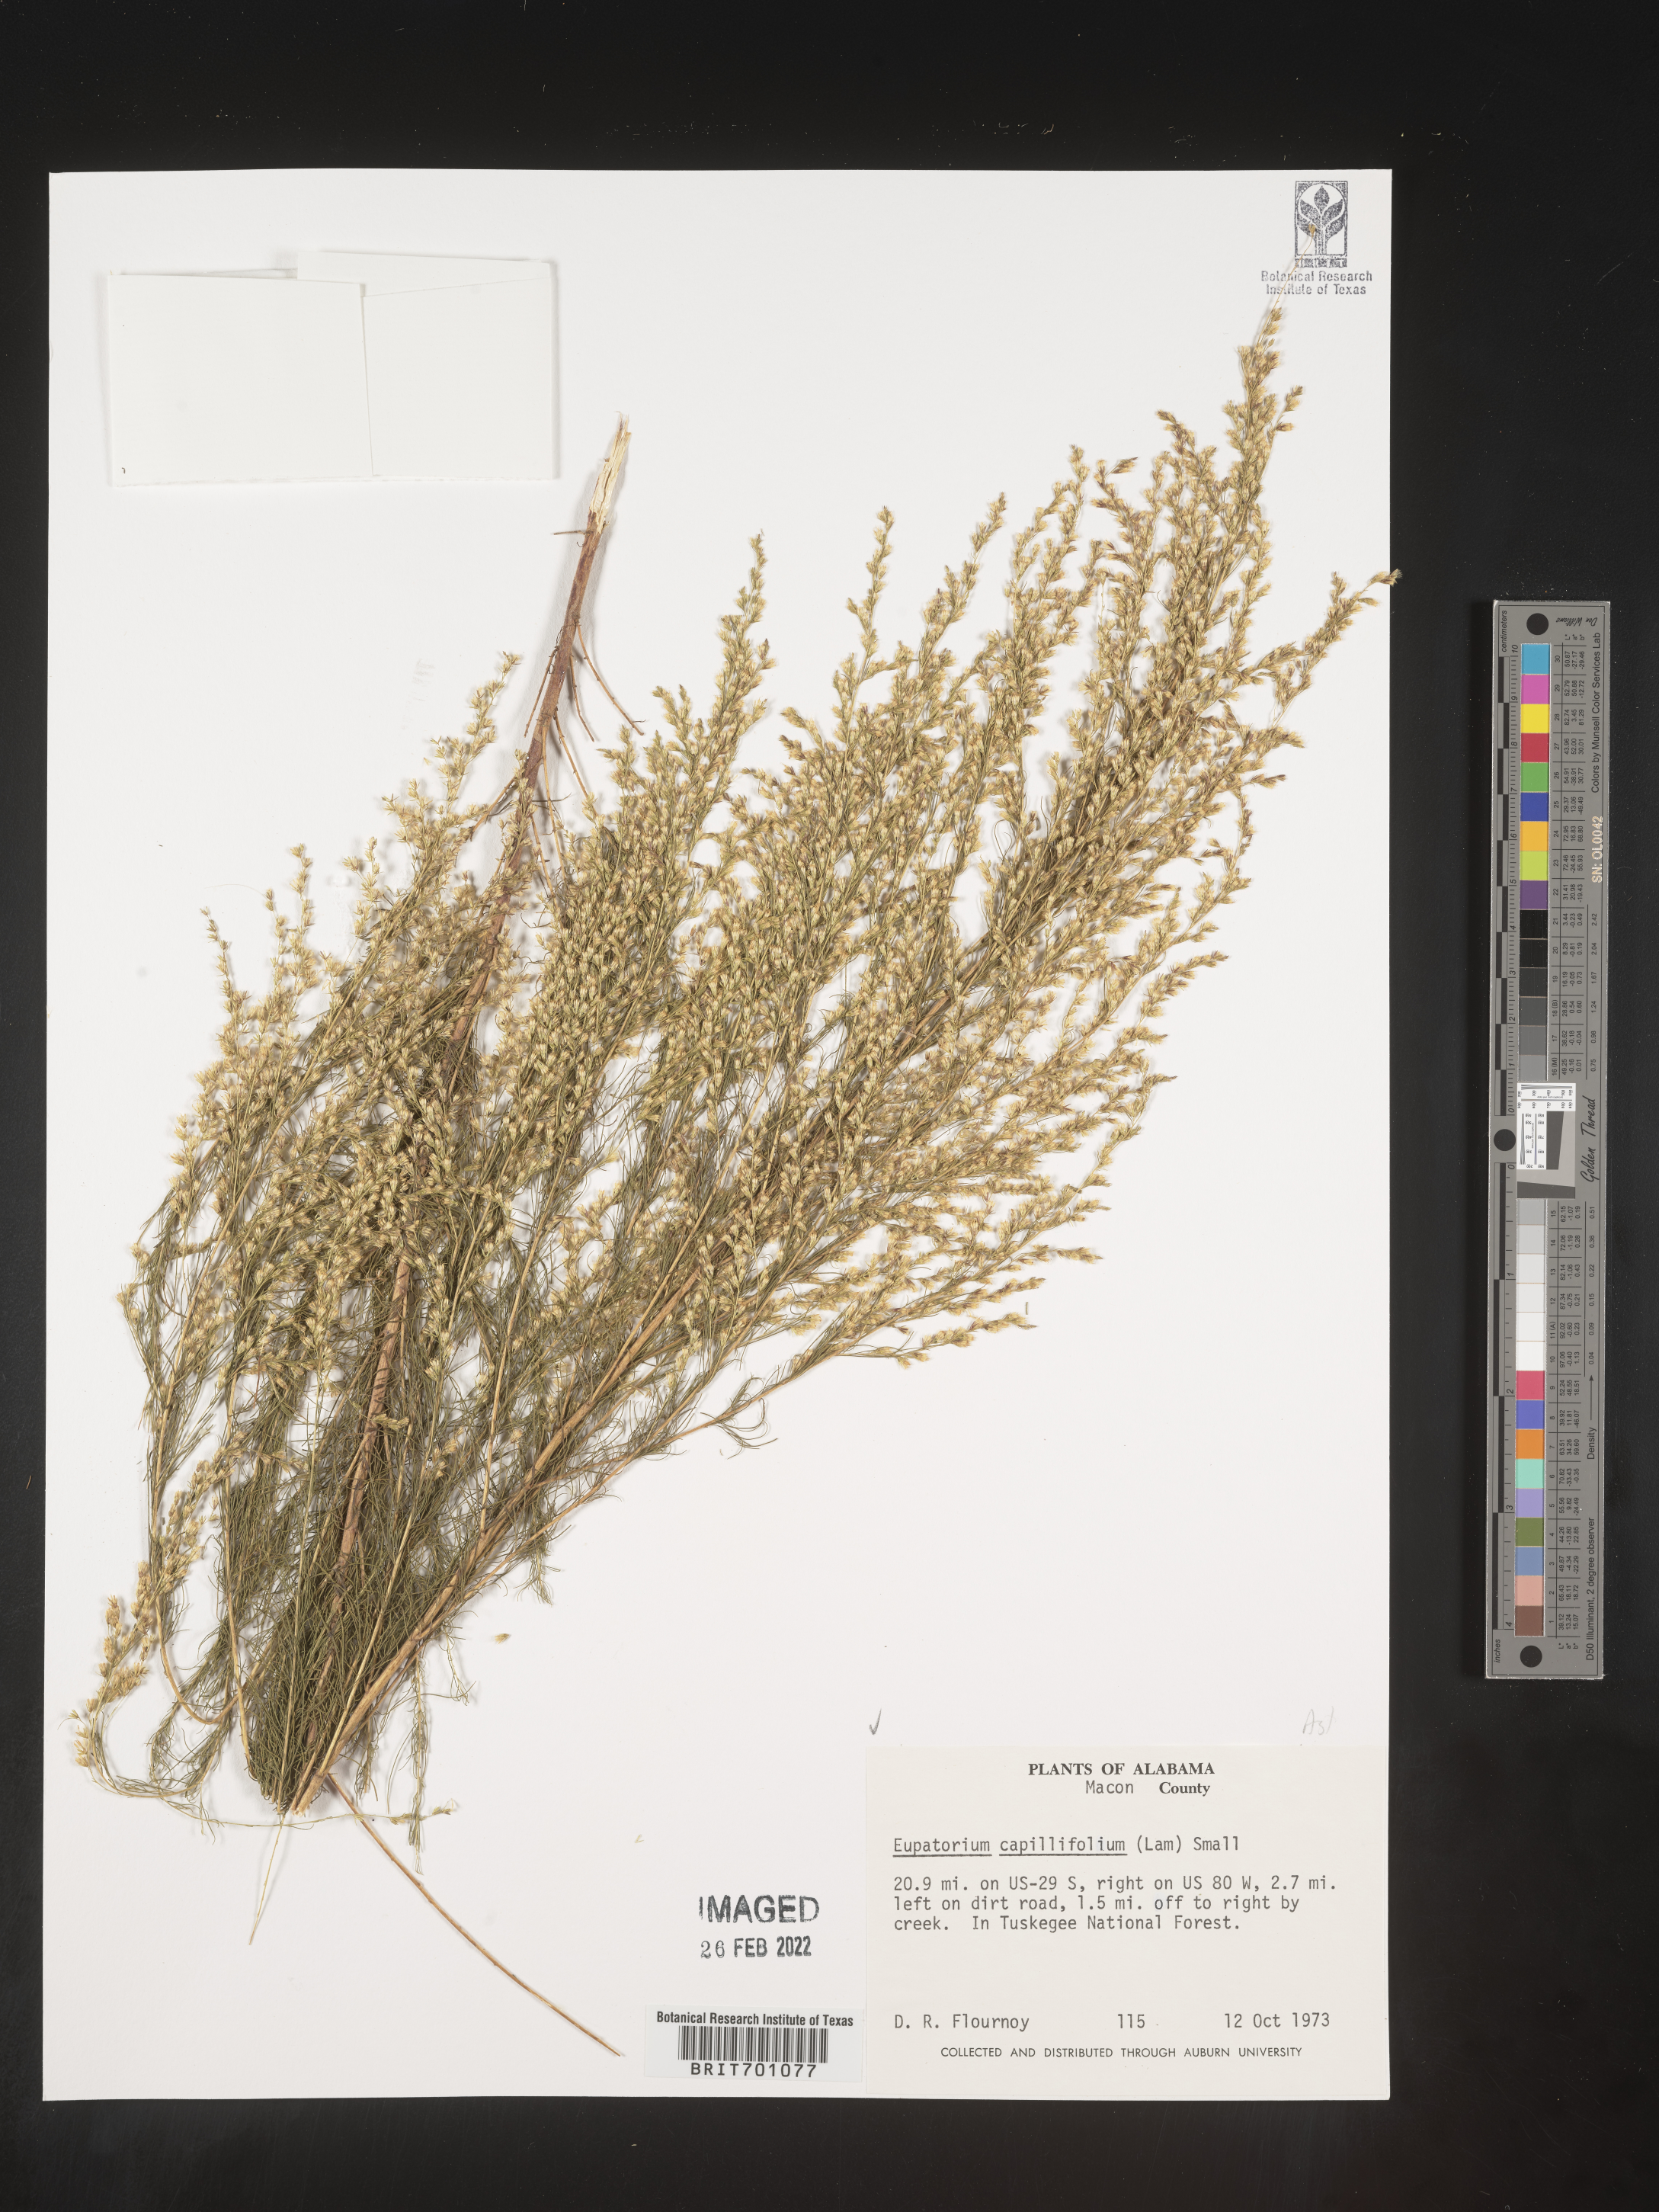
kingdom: Plantae
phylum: Tracheophyta
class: Magnoliopsida
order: Asterales
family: Asteraceae
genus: Eupatorium
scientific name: Eupatorium capillifolium
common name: Dog-fennel
